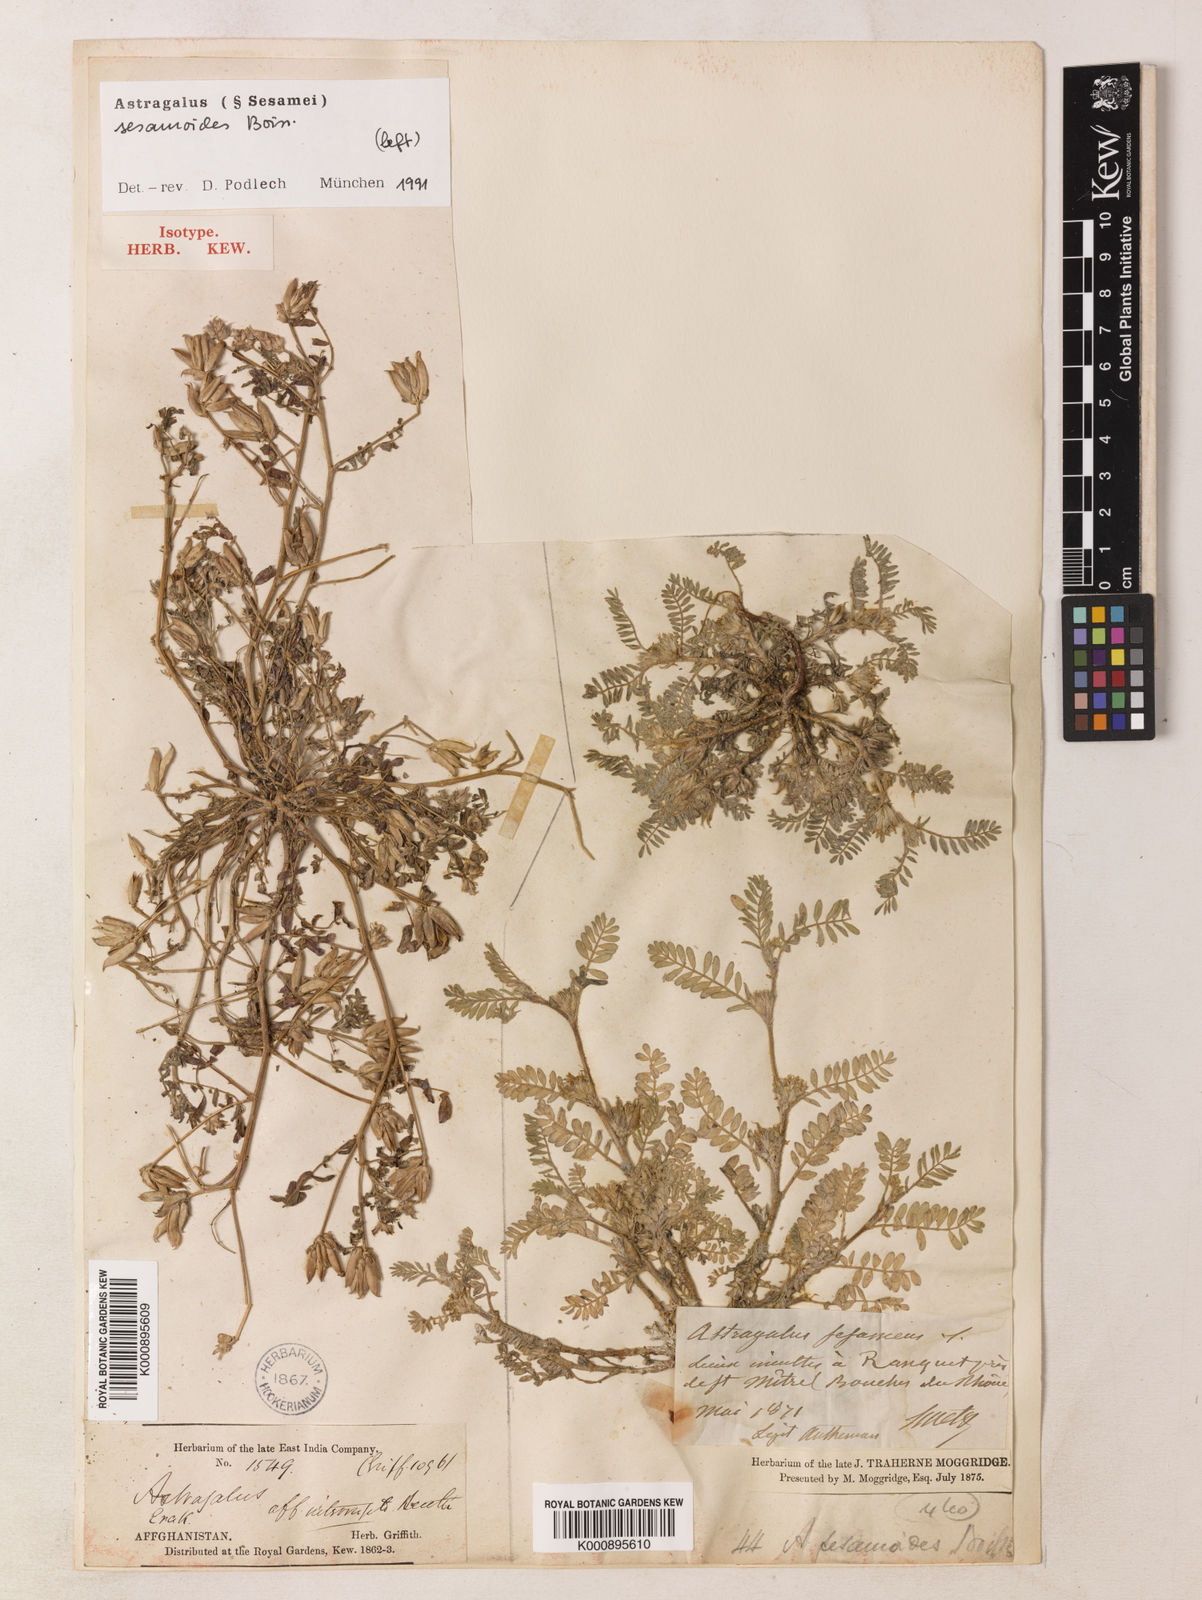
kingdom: Plantae
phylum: Tracheophyta
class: Magnoliopsida
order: Fabales
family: Fabaceae
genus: Astragalus
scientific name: Astragalus sesamoides
